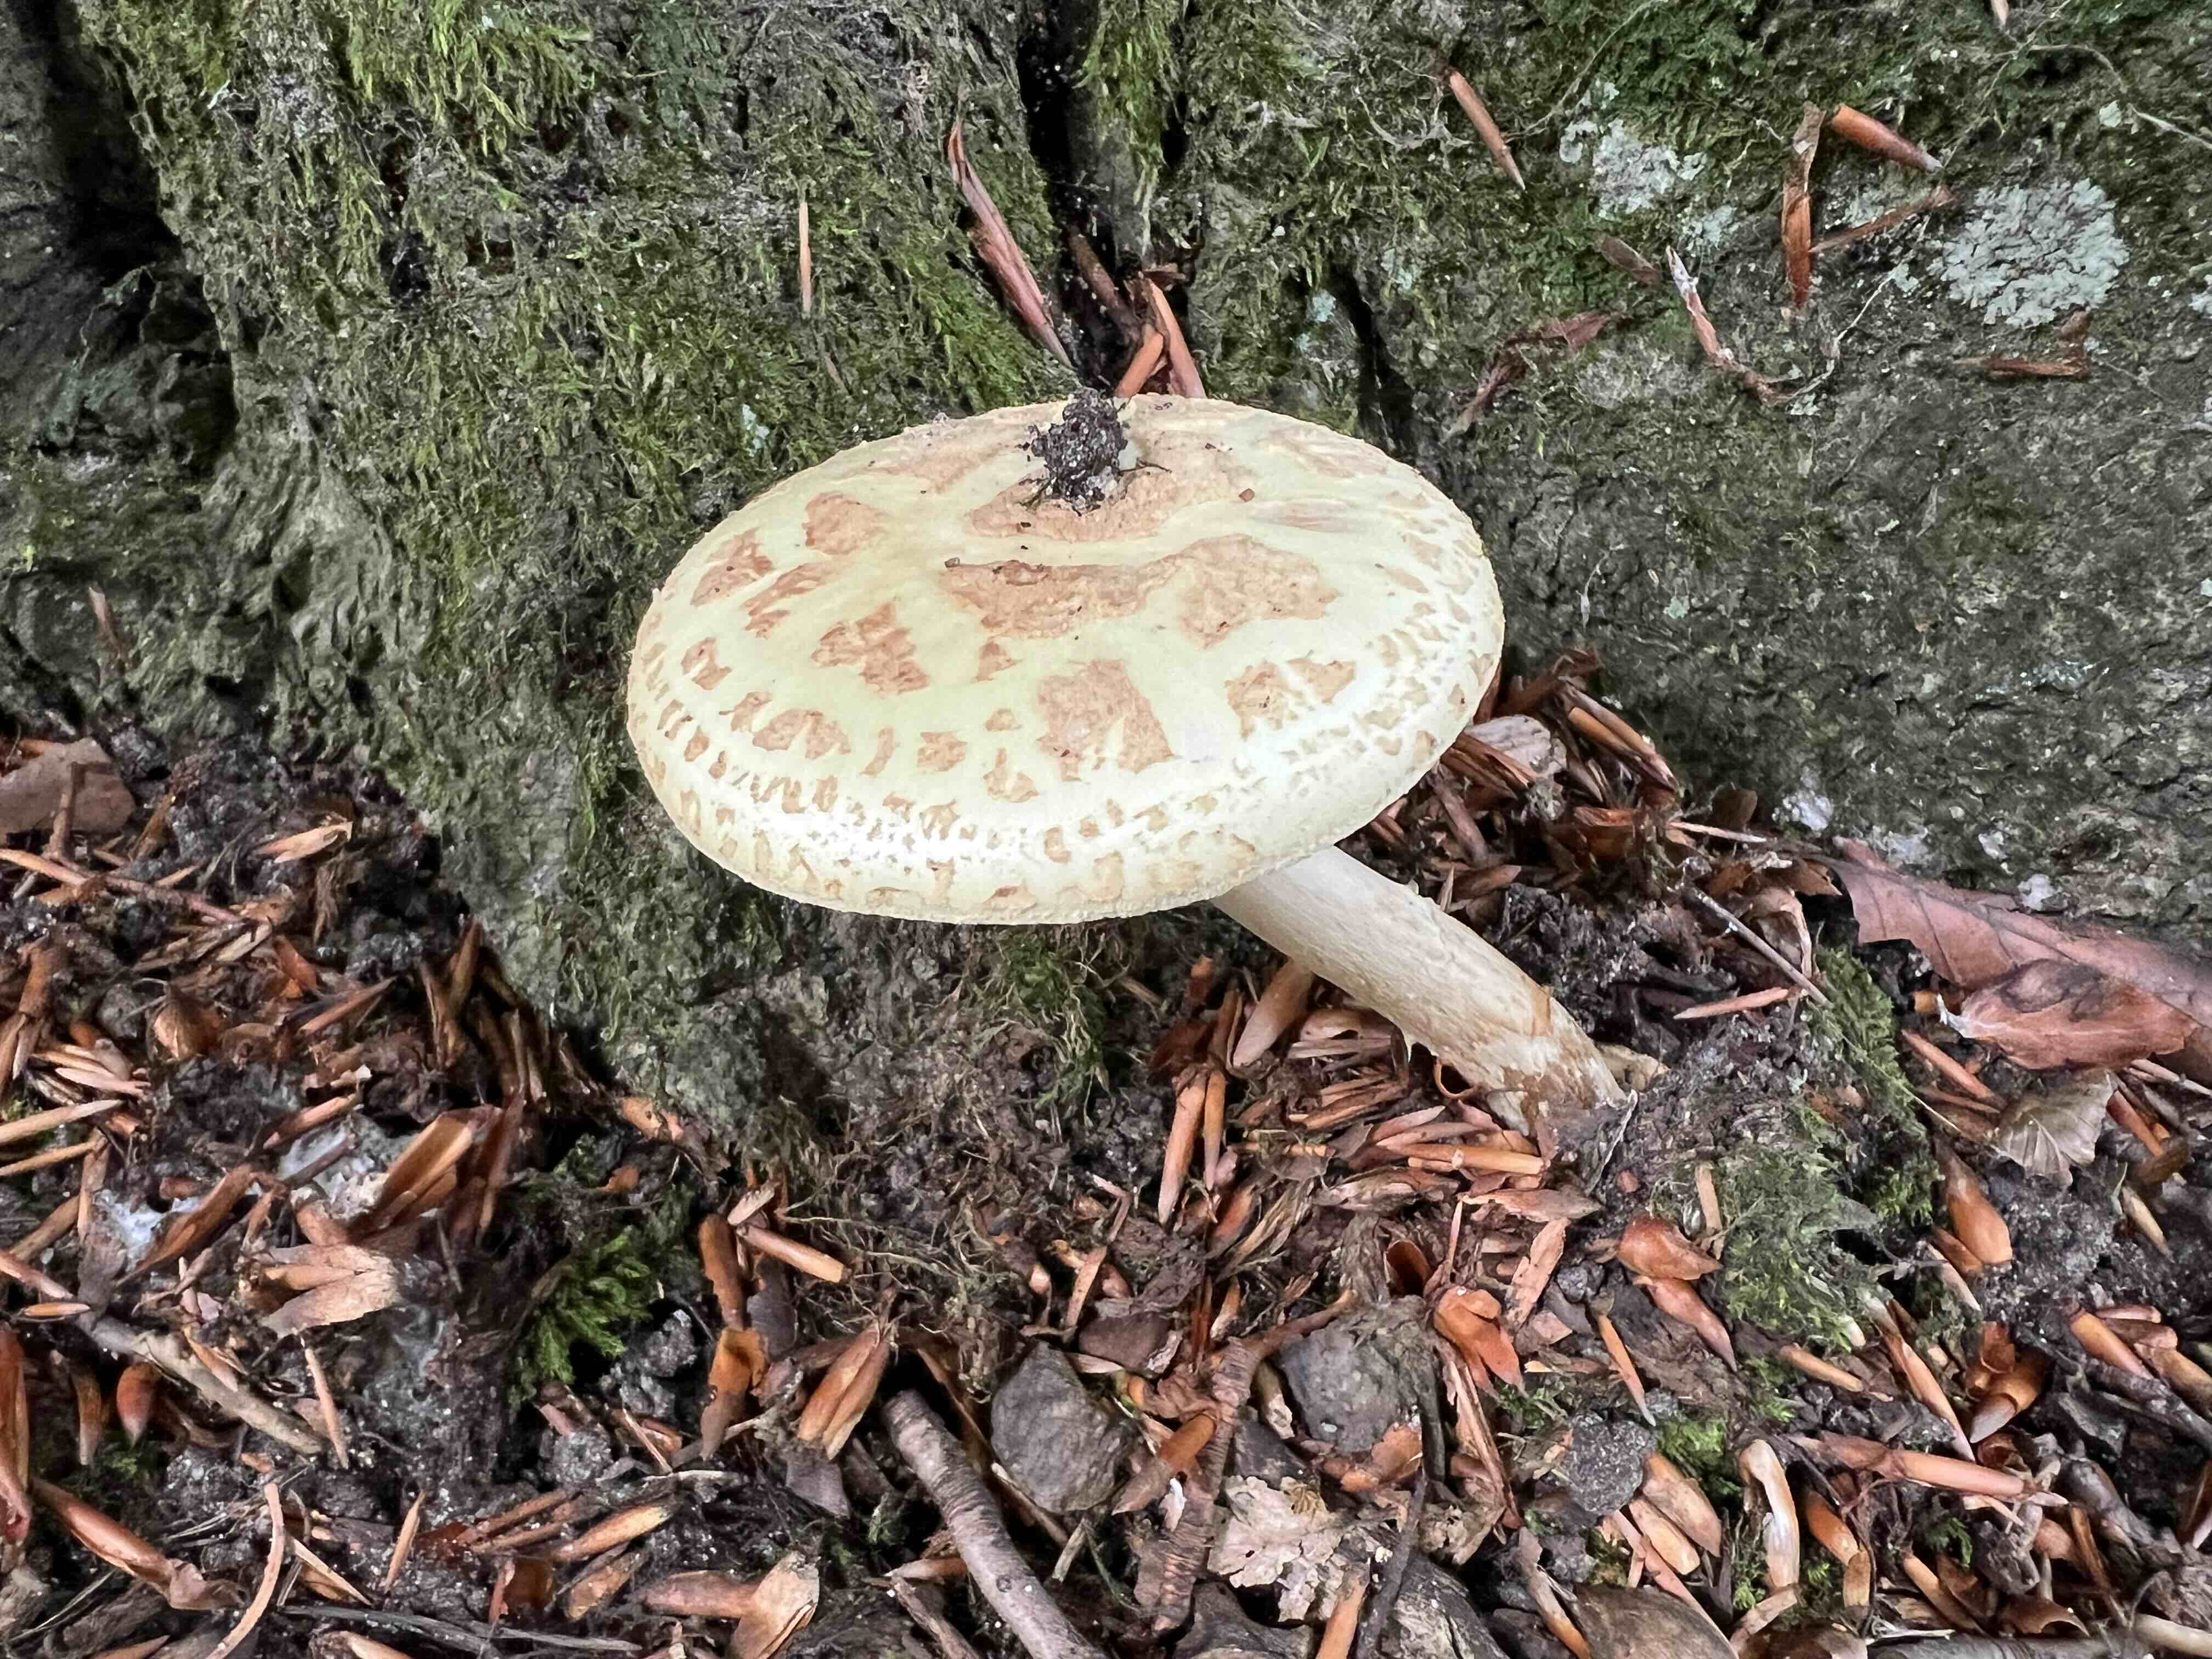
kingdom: Fungi
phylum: Basidiomycota
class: Agaricomycetes
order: Agaricales
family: Amanitaceae
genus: Amanita
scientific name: Amanita citrina
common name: kugleknoldet fluesvamp
